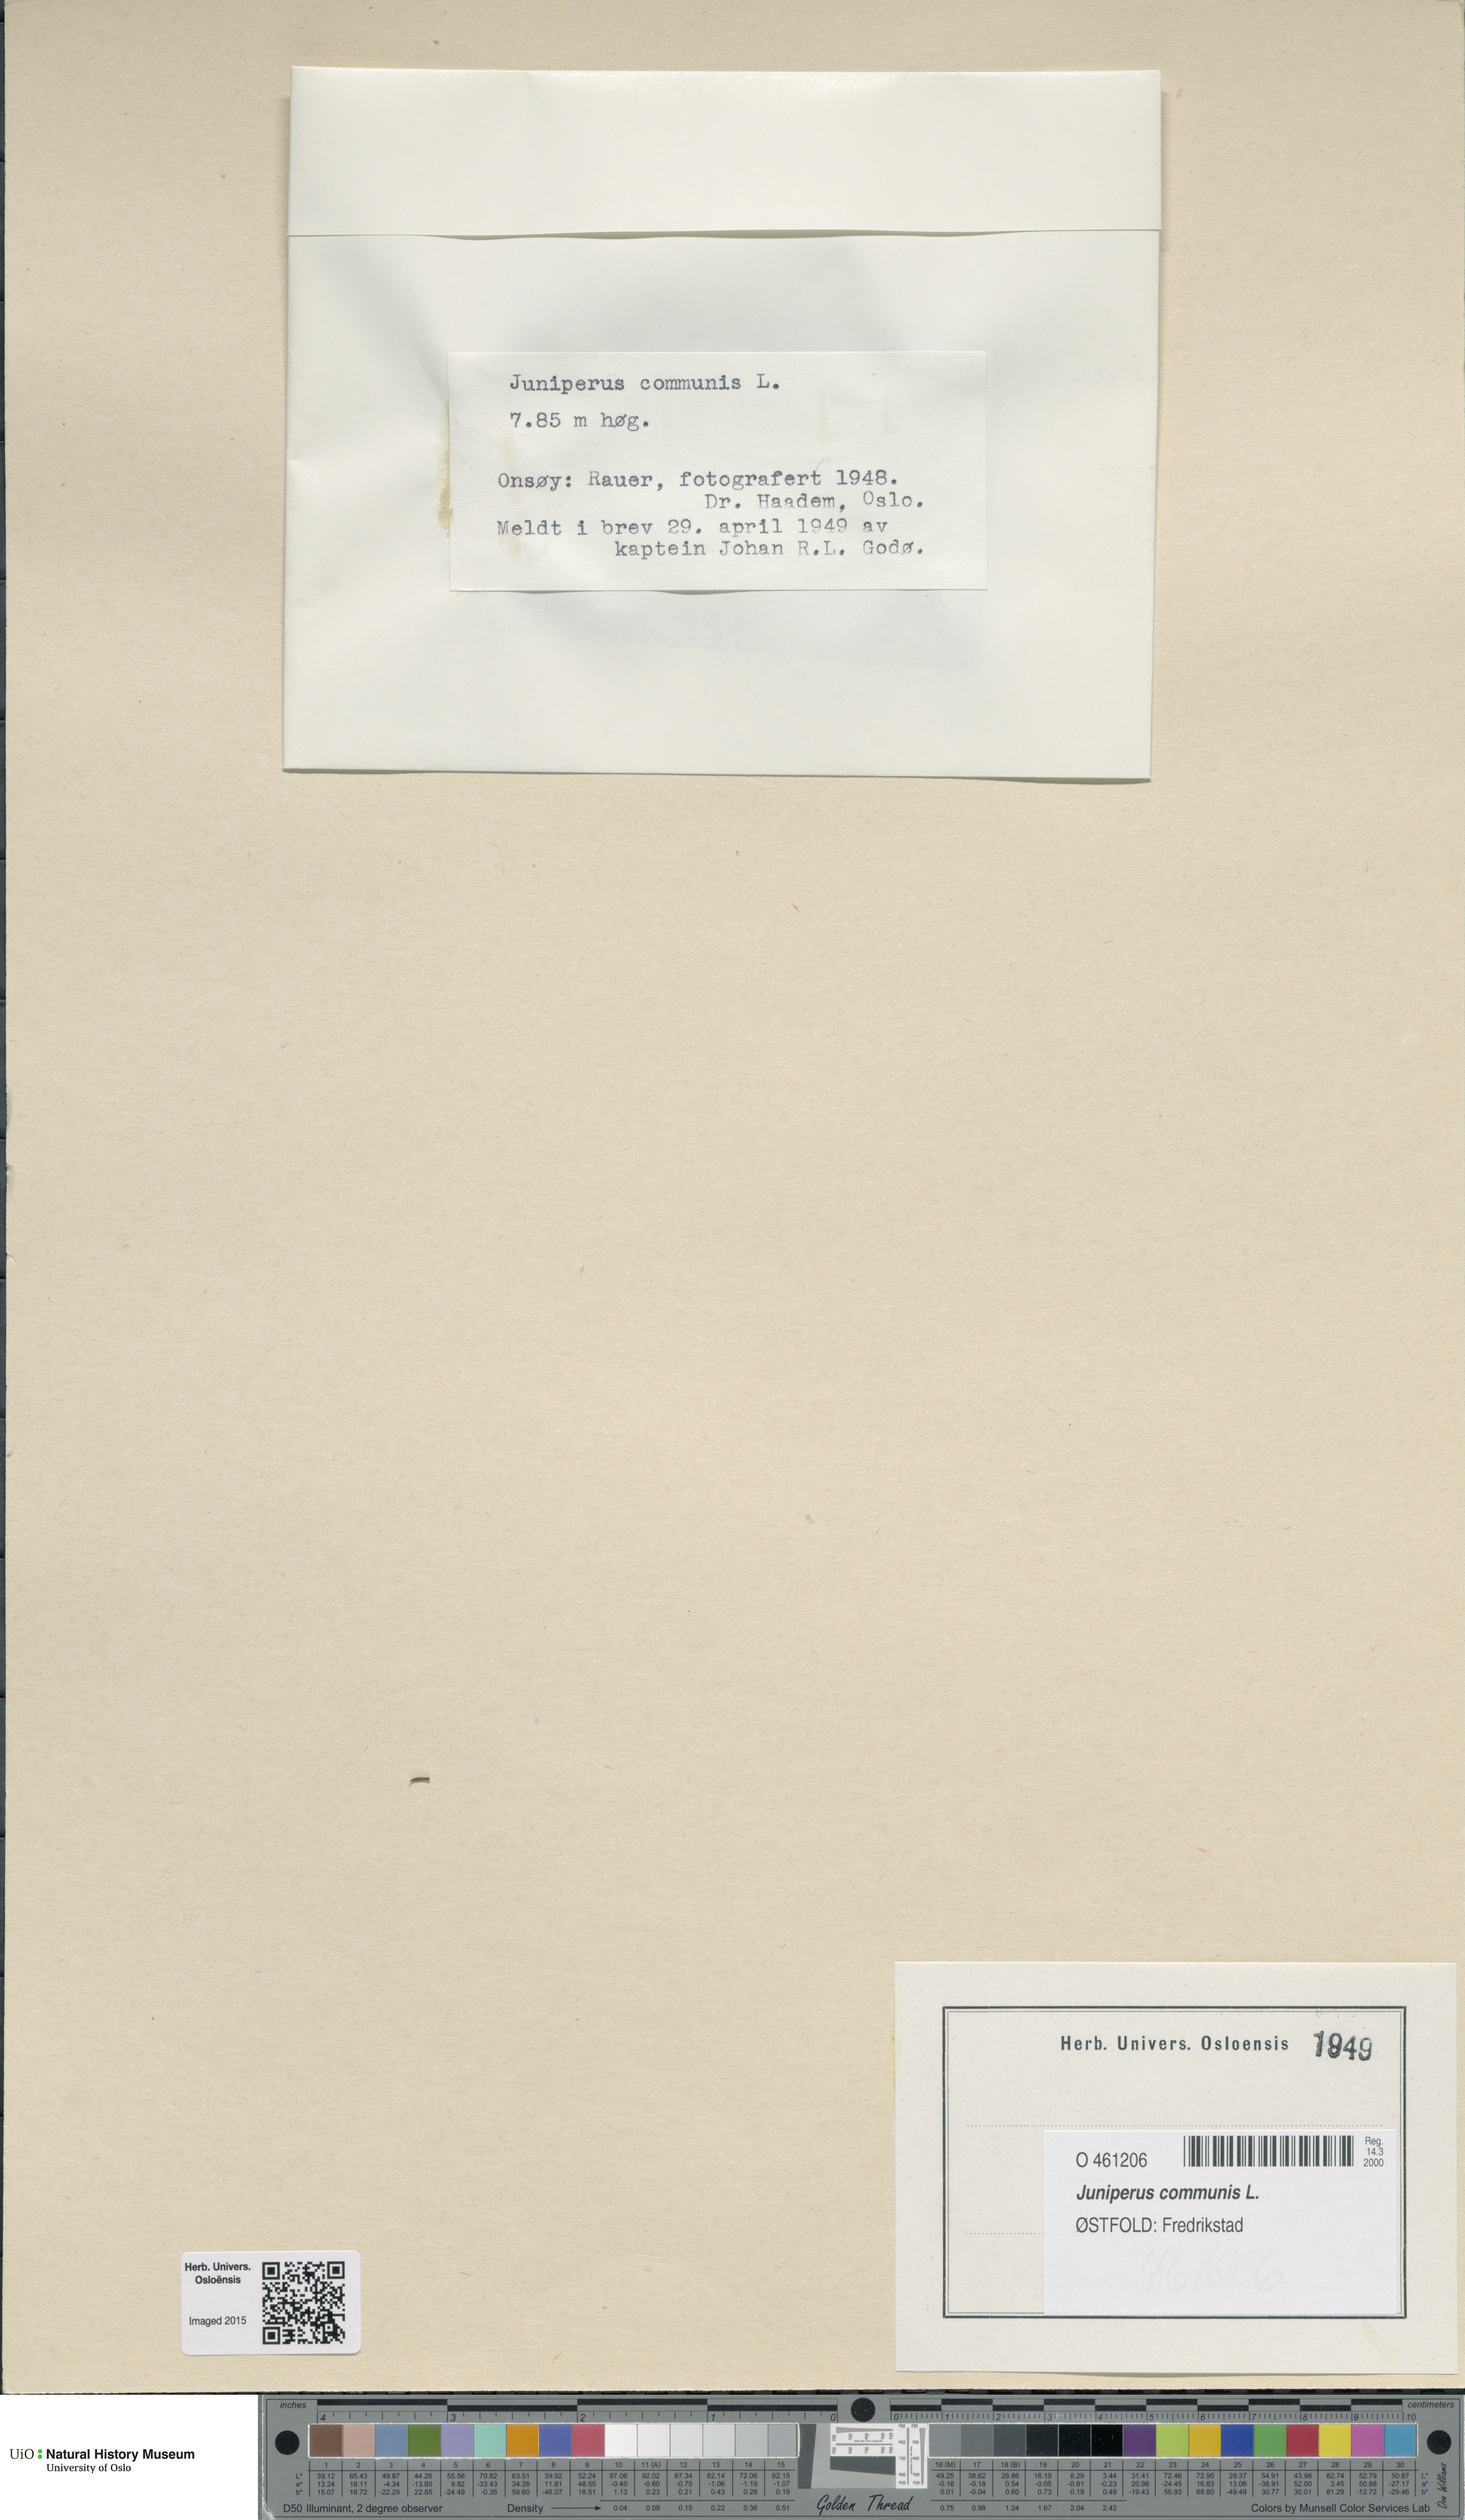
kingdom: Plantae
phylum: Tracheophyta
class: Pinopsida
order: Pinales
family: Cupressaceae
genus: Juniperus
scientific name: Juniperus communis
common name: Common juniper
